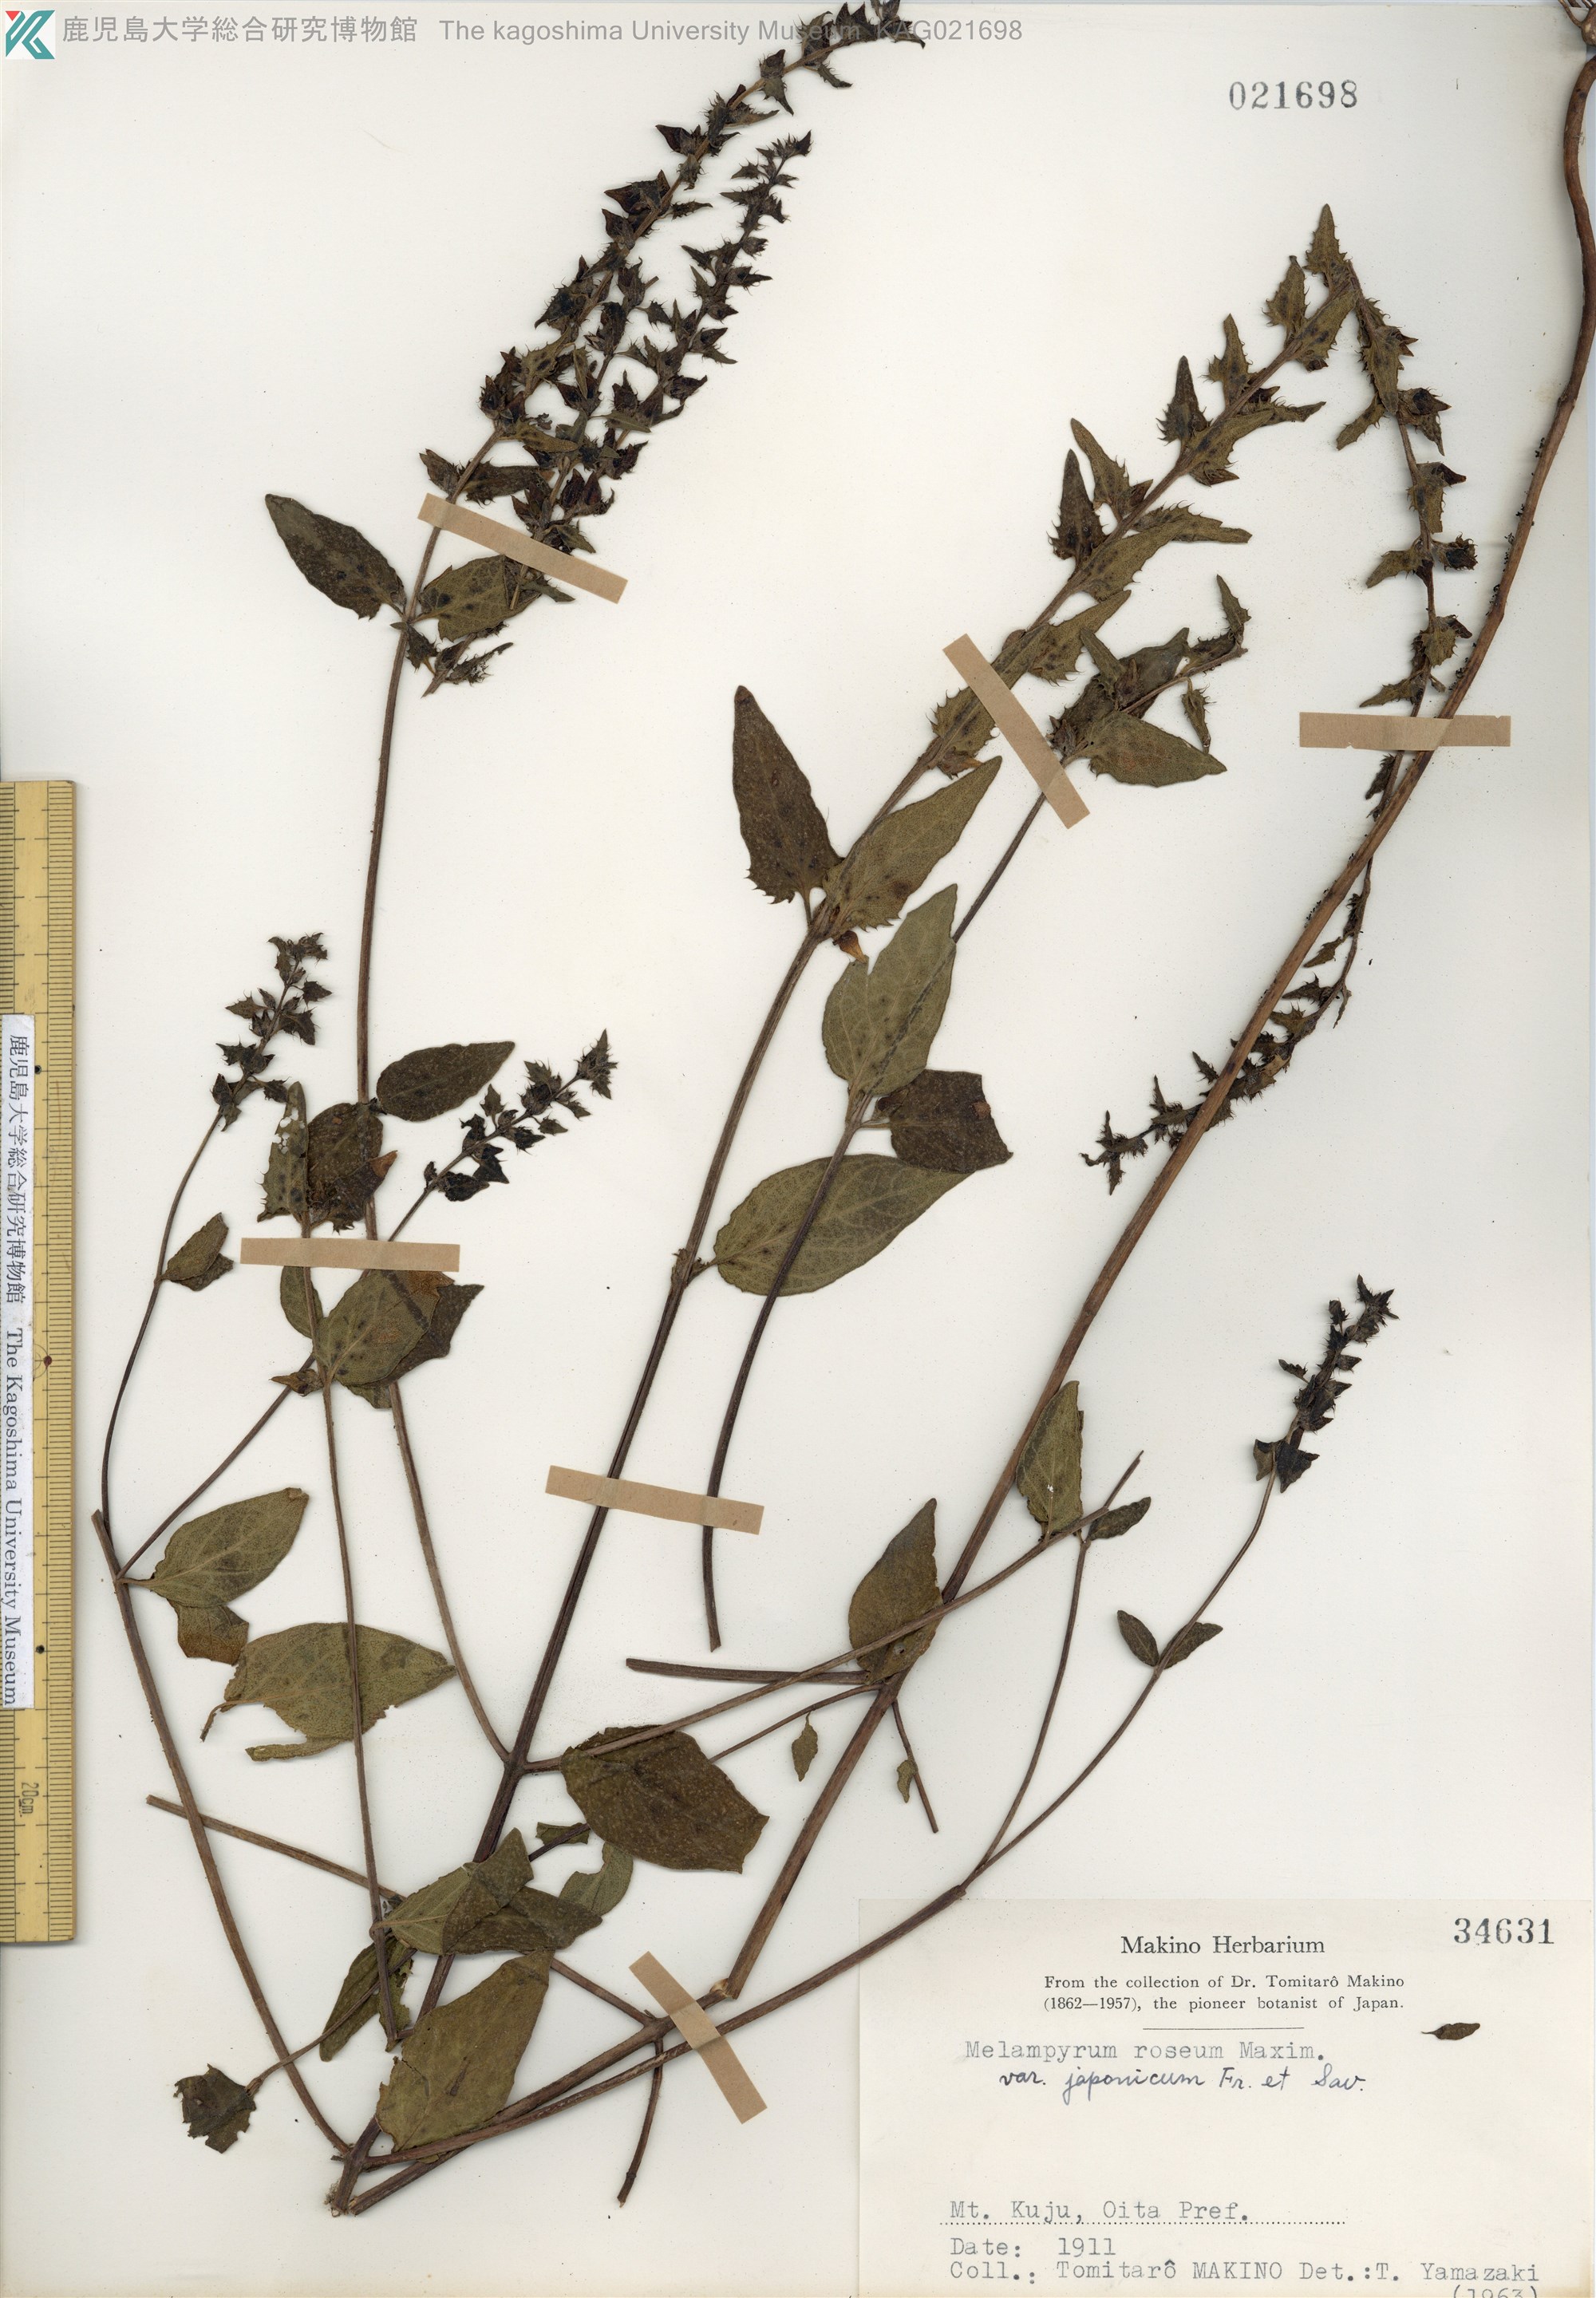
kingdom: Plantae
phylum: Tracheophyta
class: Magnoliopsida
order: Lamiales
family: Orobanchaceae
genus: Melampyrum
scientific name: Melampyrum roseum
